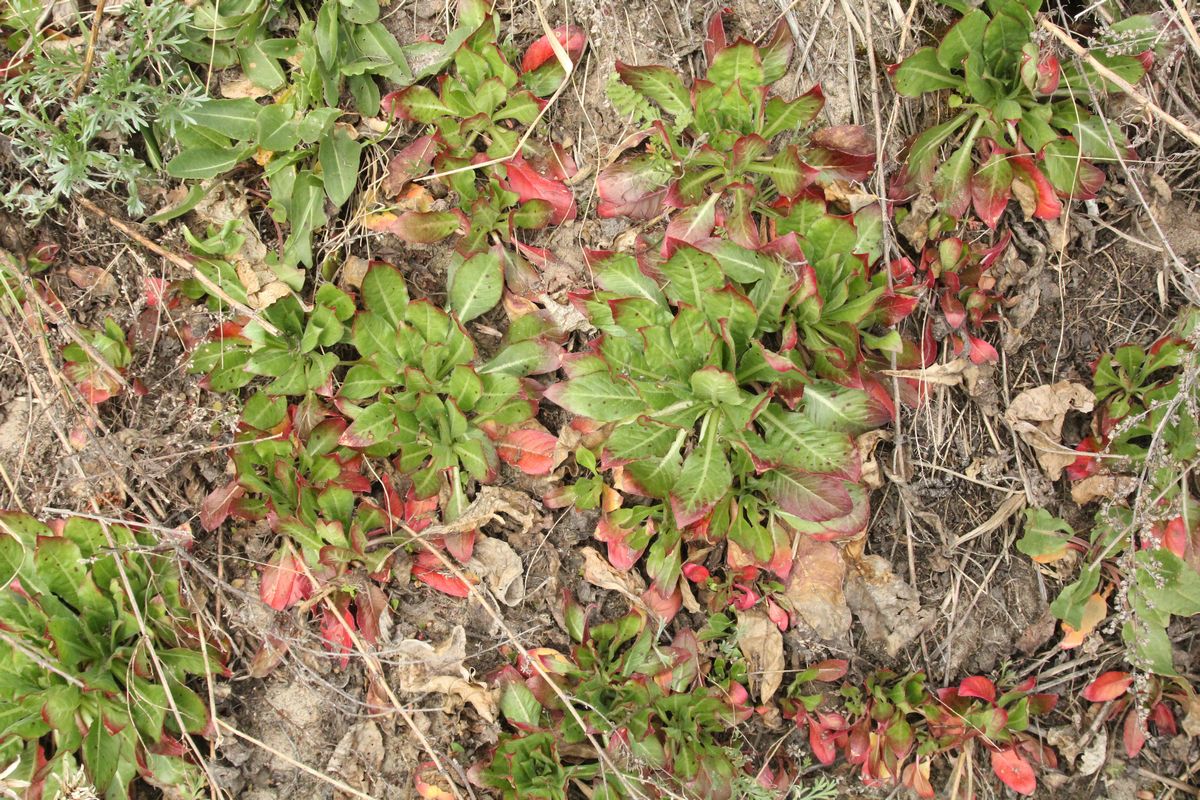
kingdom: Plantae
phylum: Tracheophyta
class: Magnoliopsida
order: Myrtales
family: Onagraceae
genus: Oenothera
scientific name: Oenothera
